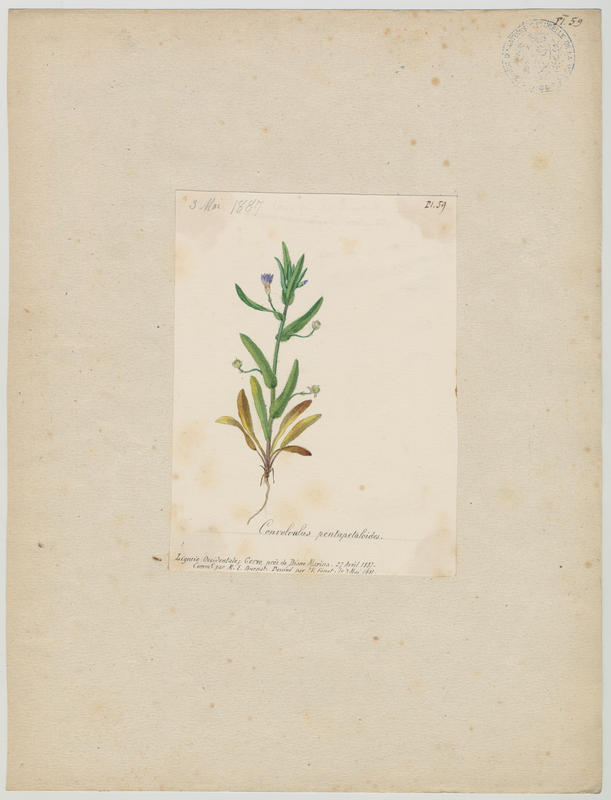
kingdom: Plantae
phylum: Tracheophyta
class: Magnoliopsida
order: Solanales
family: Convolvulaceae
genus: Convolvulus
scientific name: Convolvulus pentapetaloides
